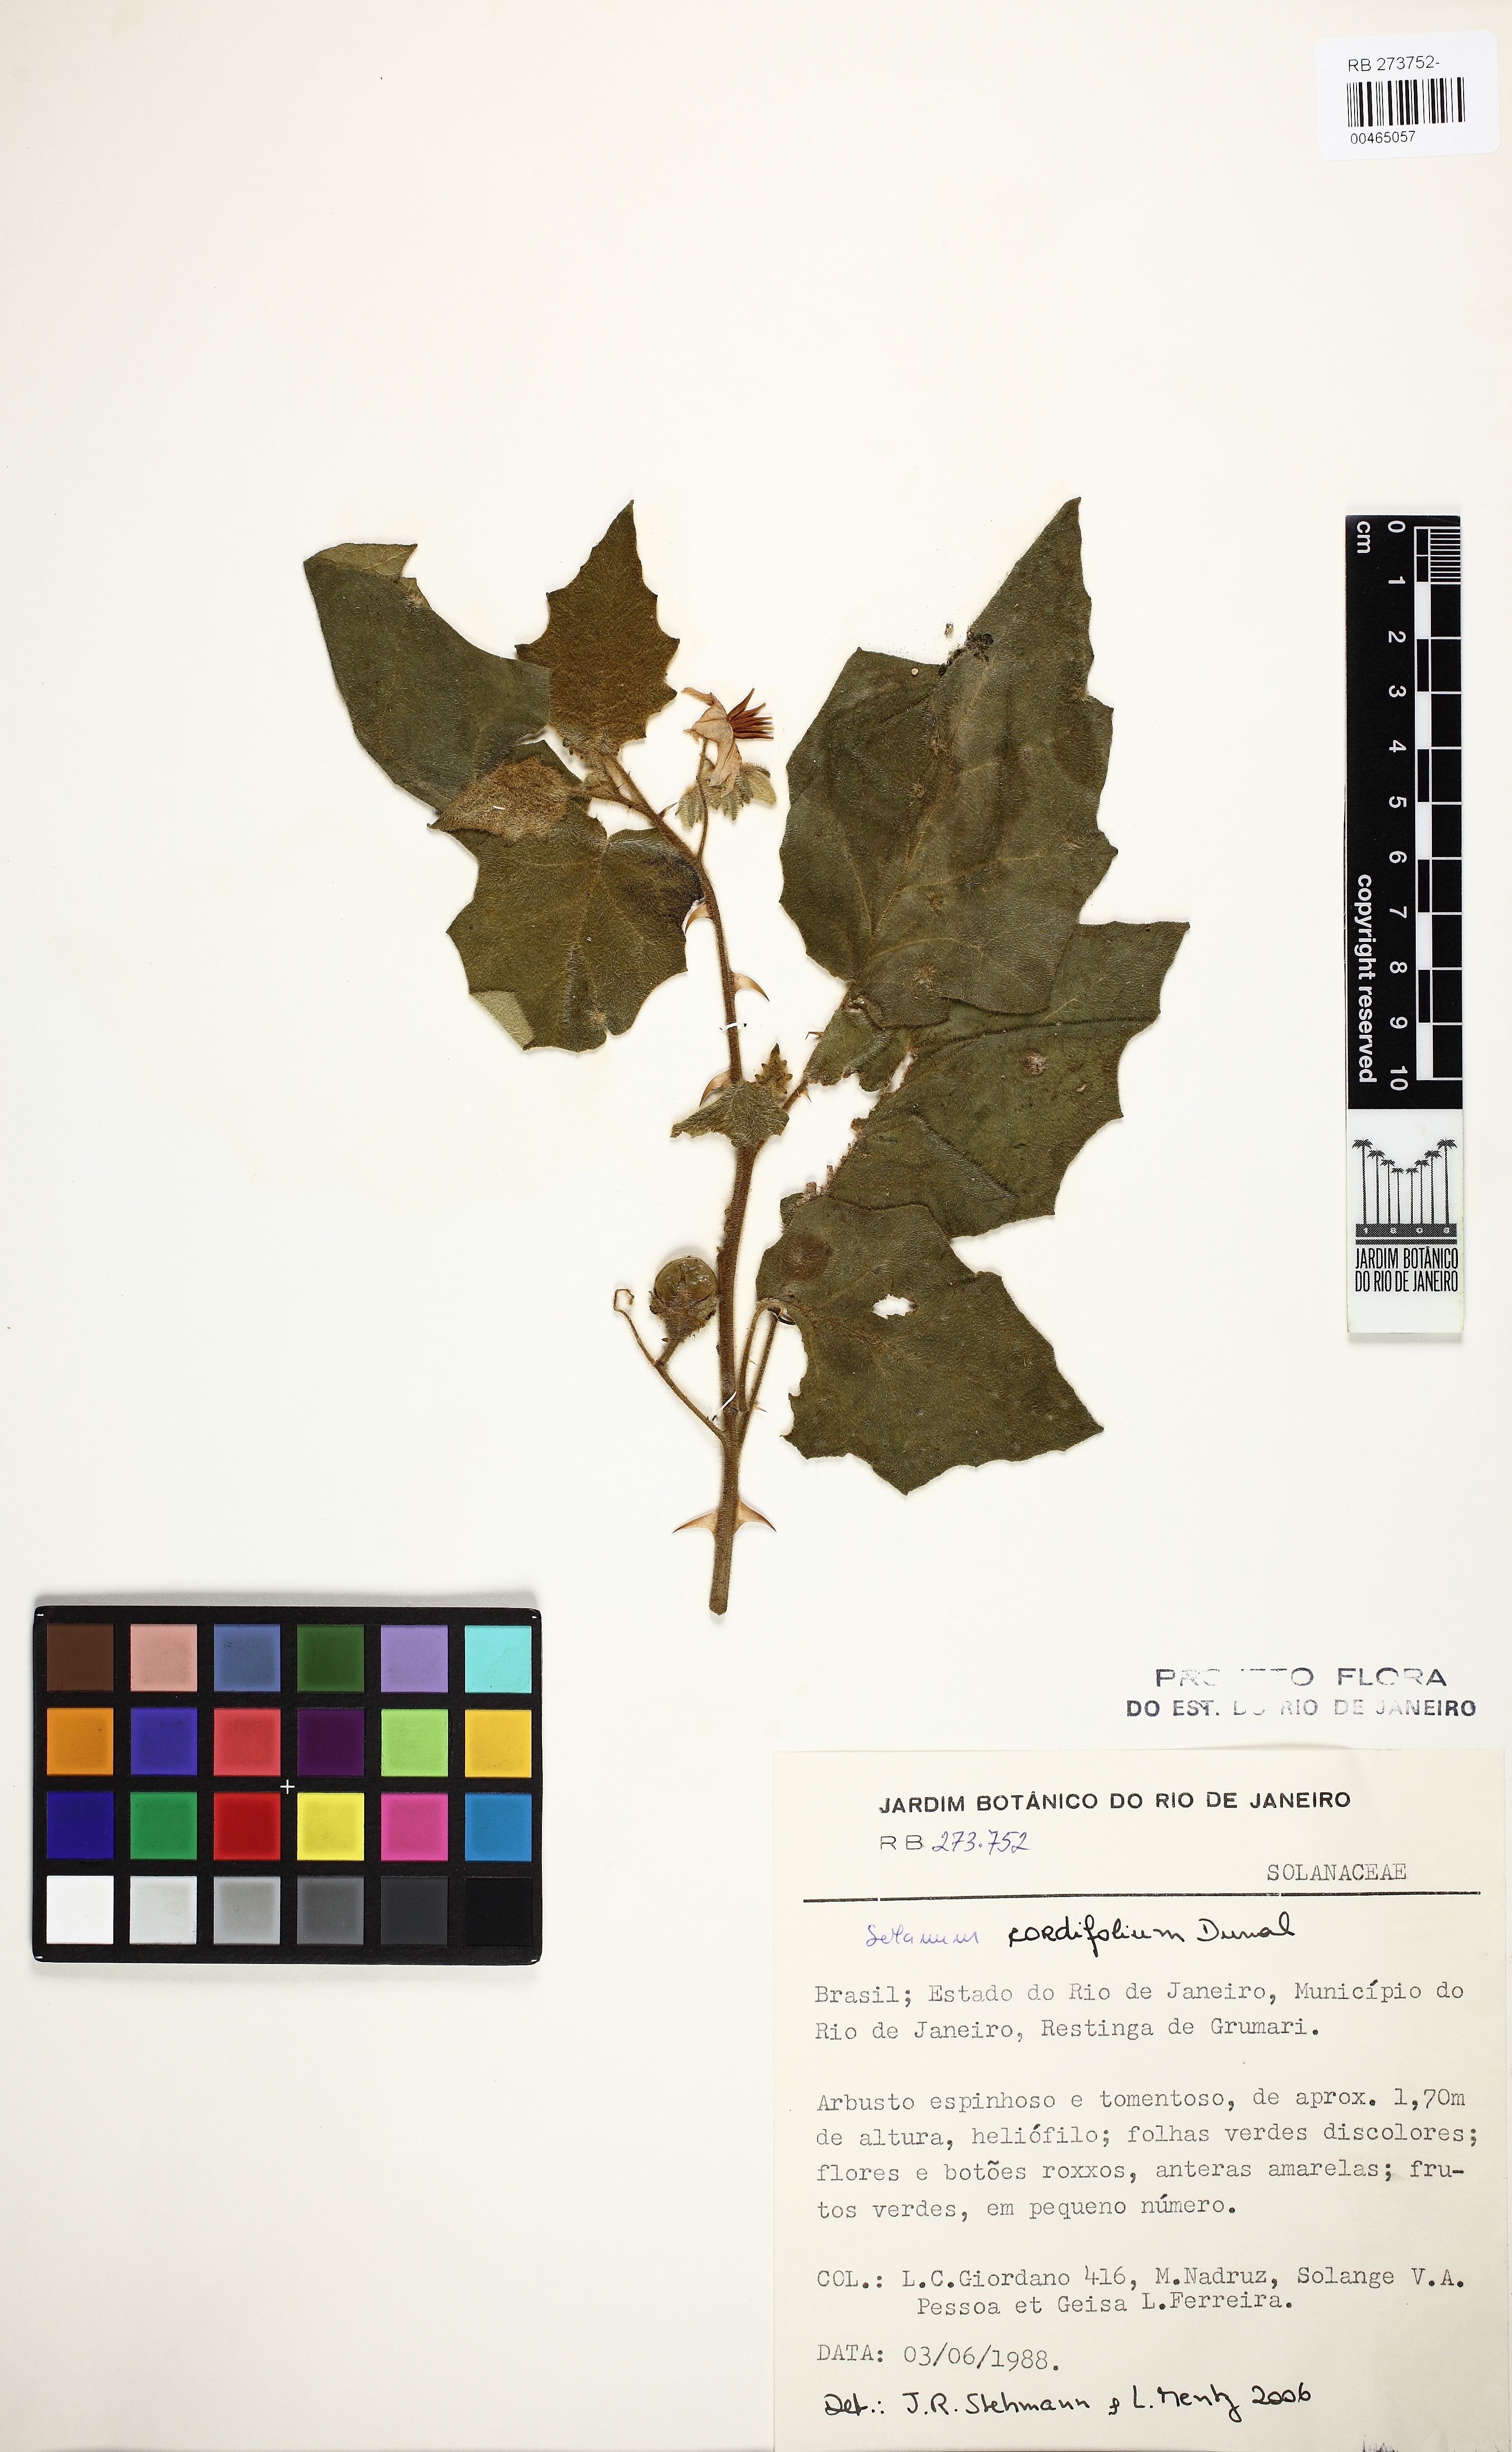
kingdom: Plantae
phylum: Tracheophyta
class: Magnoliopsida
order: Solanales
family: Solanaceae
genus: Solanum
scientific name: Solanum cordifolium
